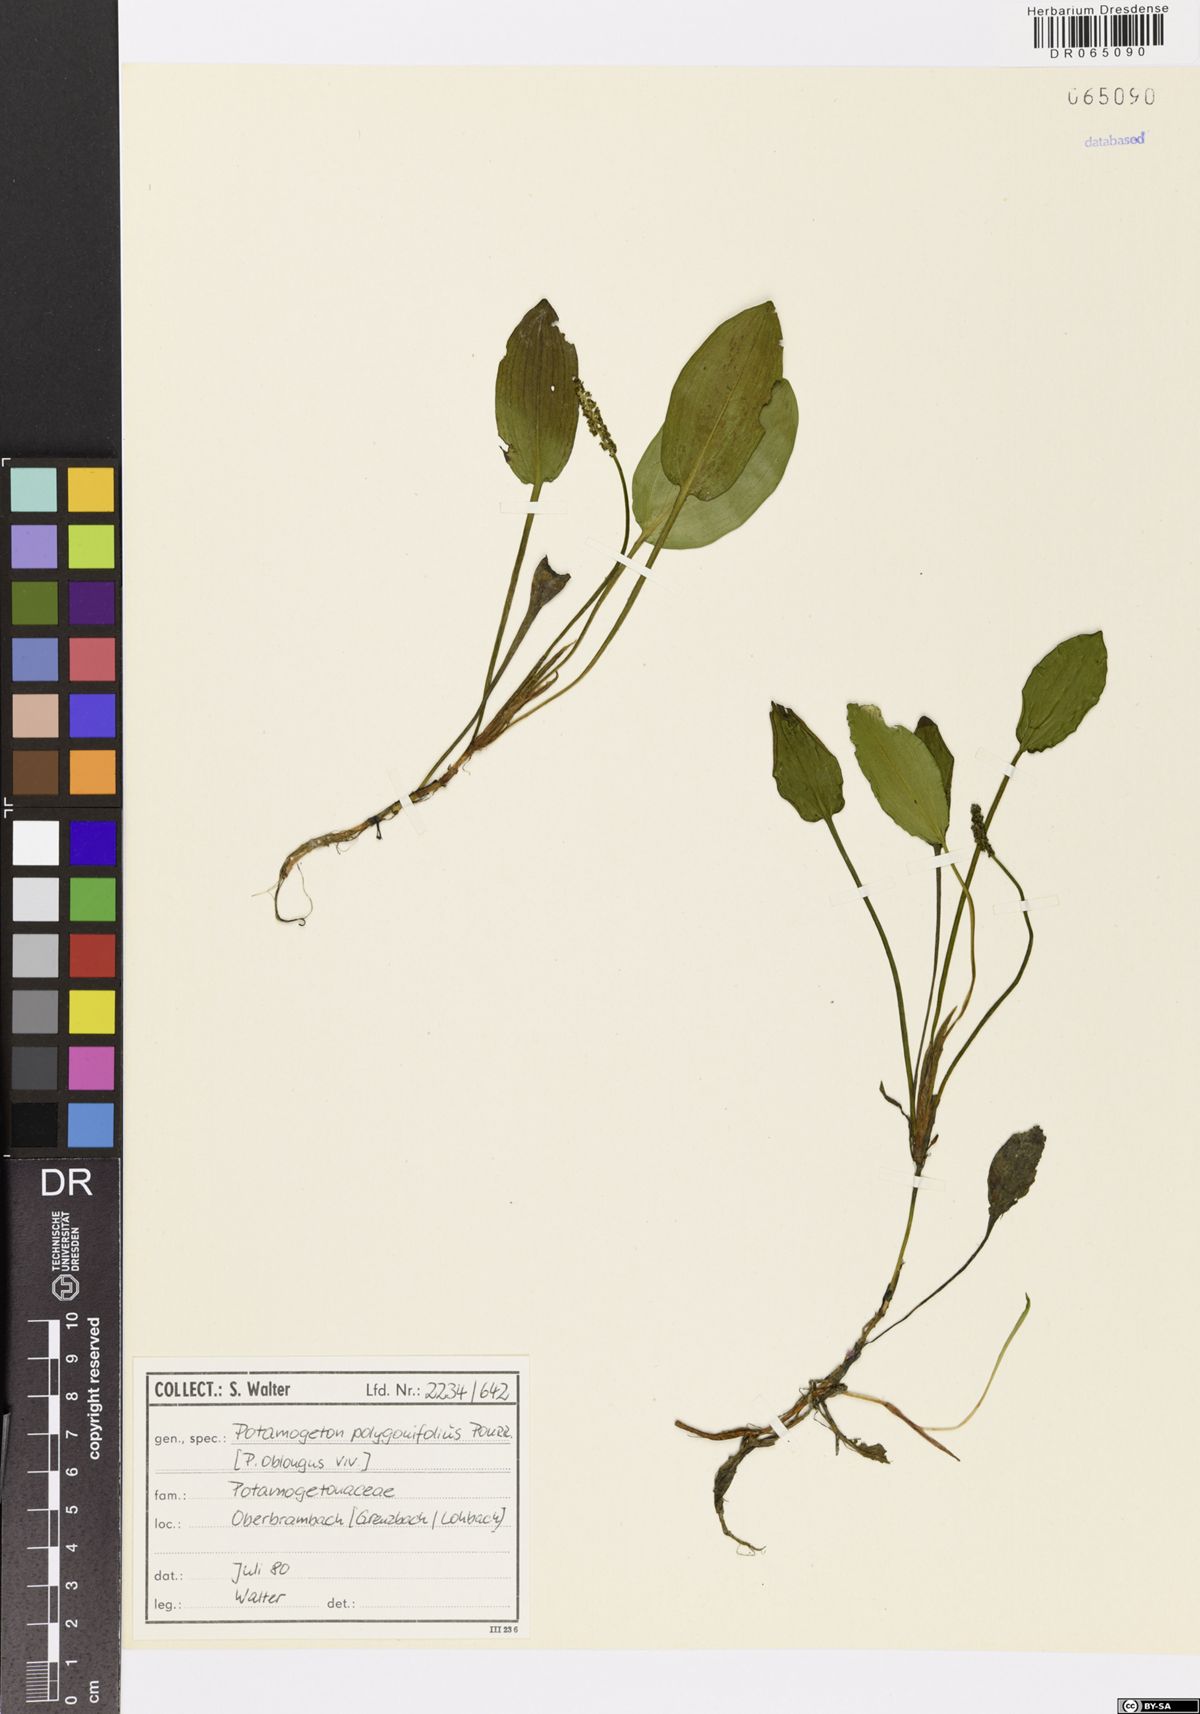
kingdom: Plantae
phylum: Tracheophyta
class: Liliopsida
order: Alismatales
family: Potamogetonaceae
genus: Potamogeton
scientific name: Potamogeton polygonifolius
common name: Bog pondweed
